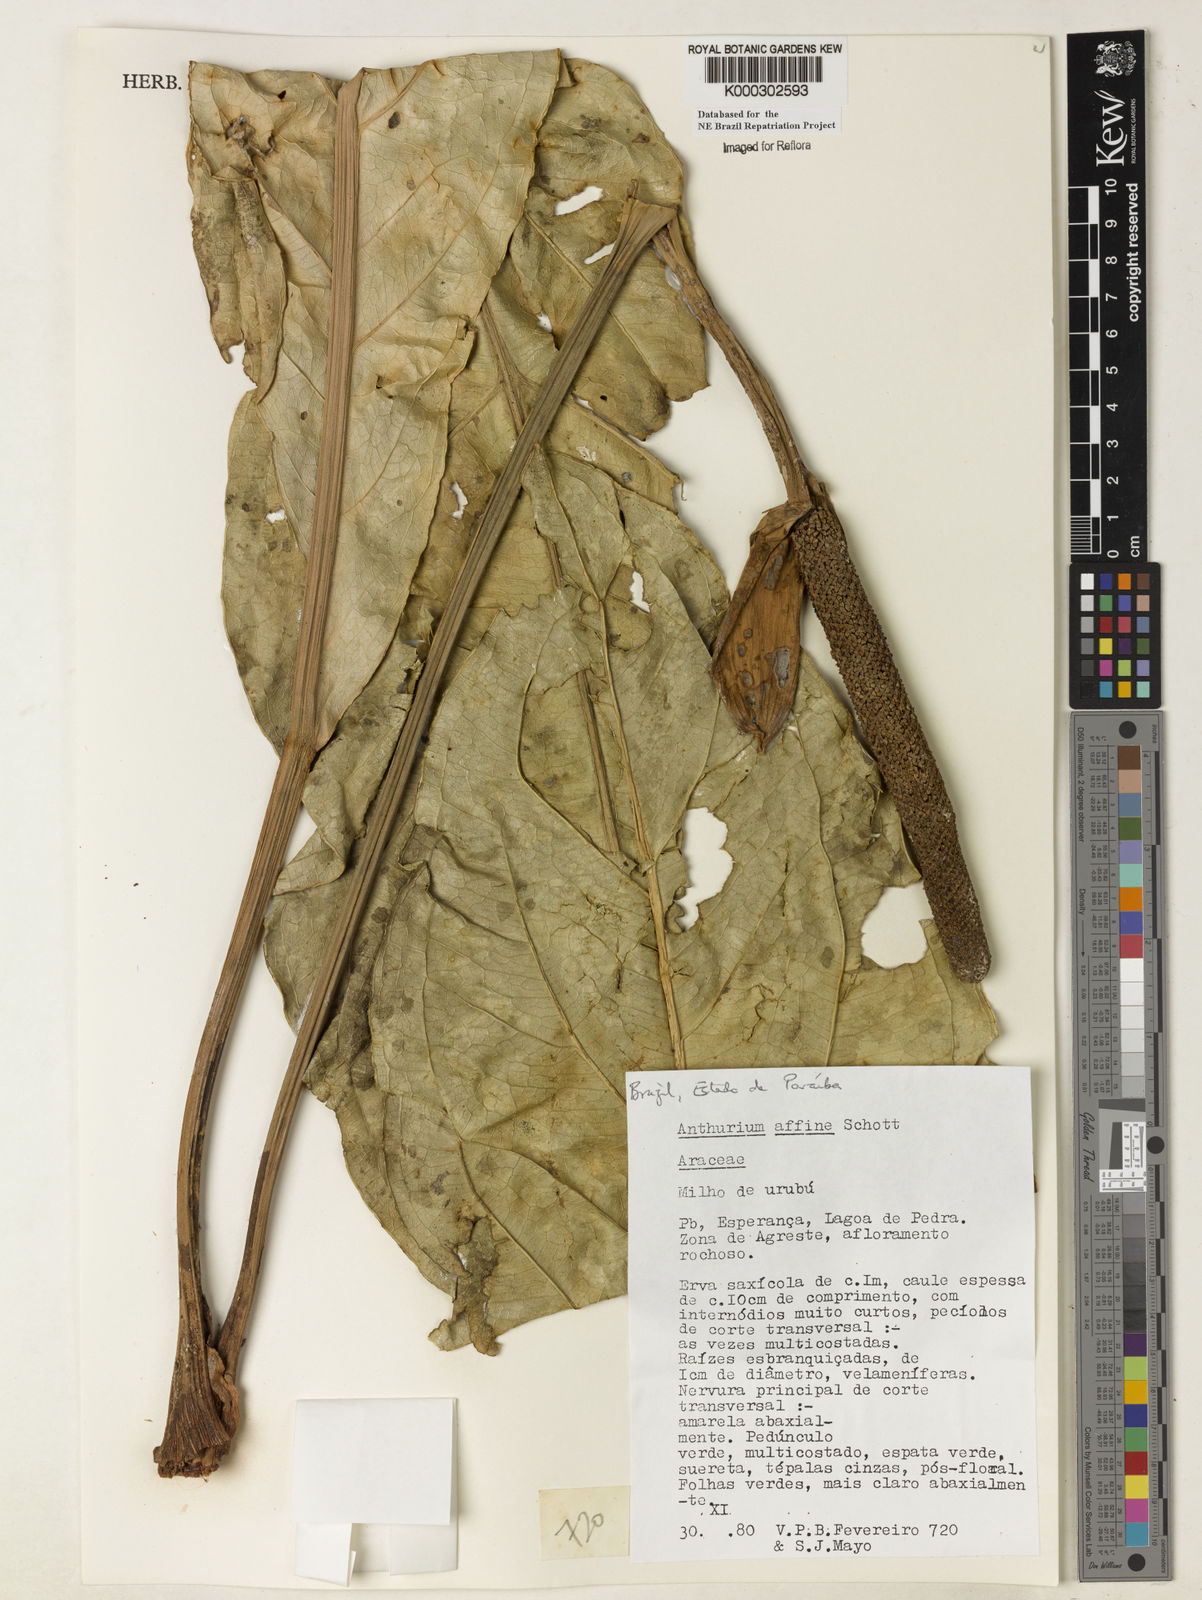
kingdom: Plantae
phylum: Tracheophyta
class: Liliopsida
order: Alismatales
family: Araceae
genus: Anthurium
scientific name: Anthurium affine
